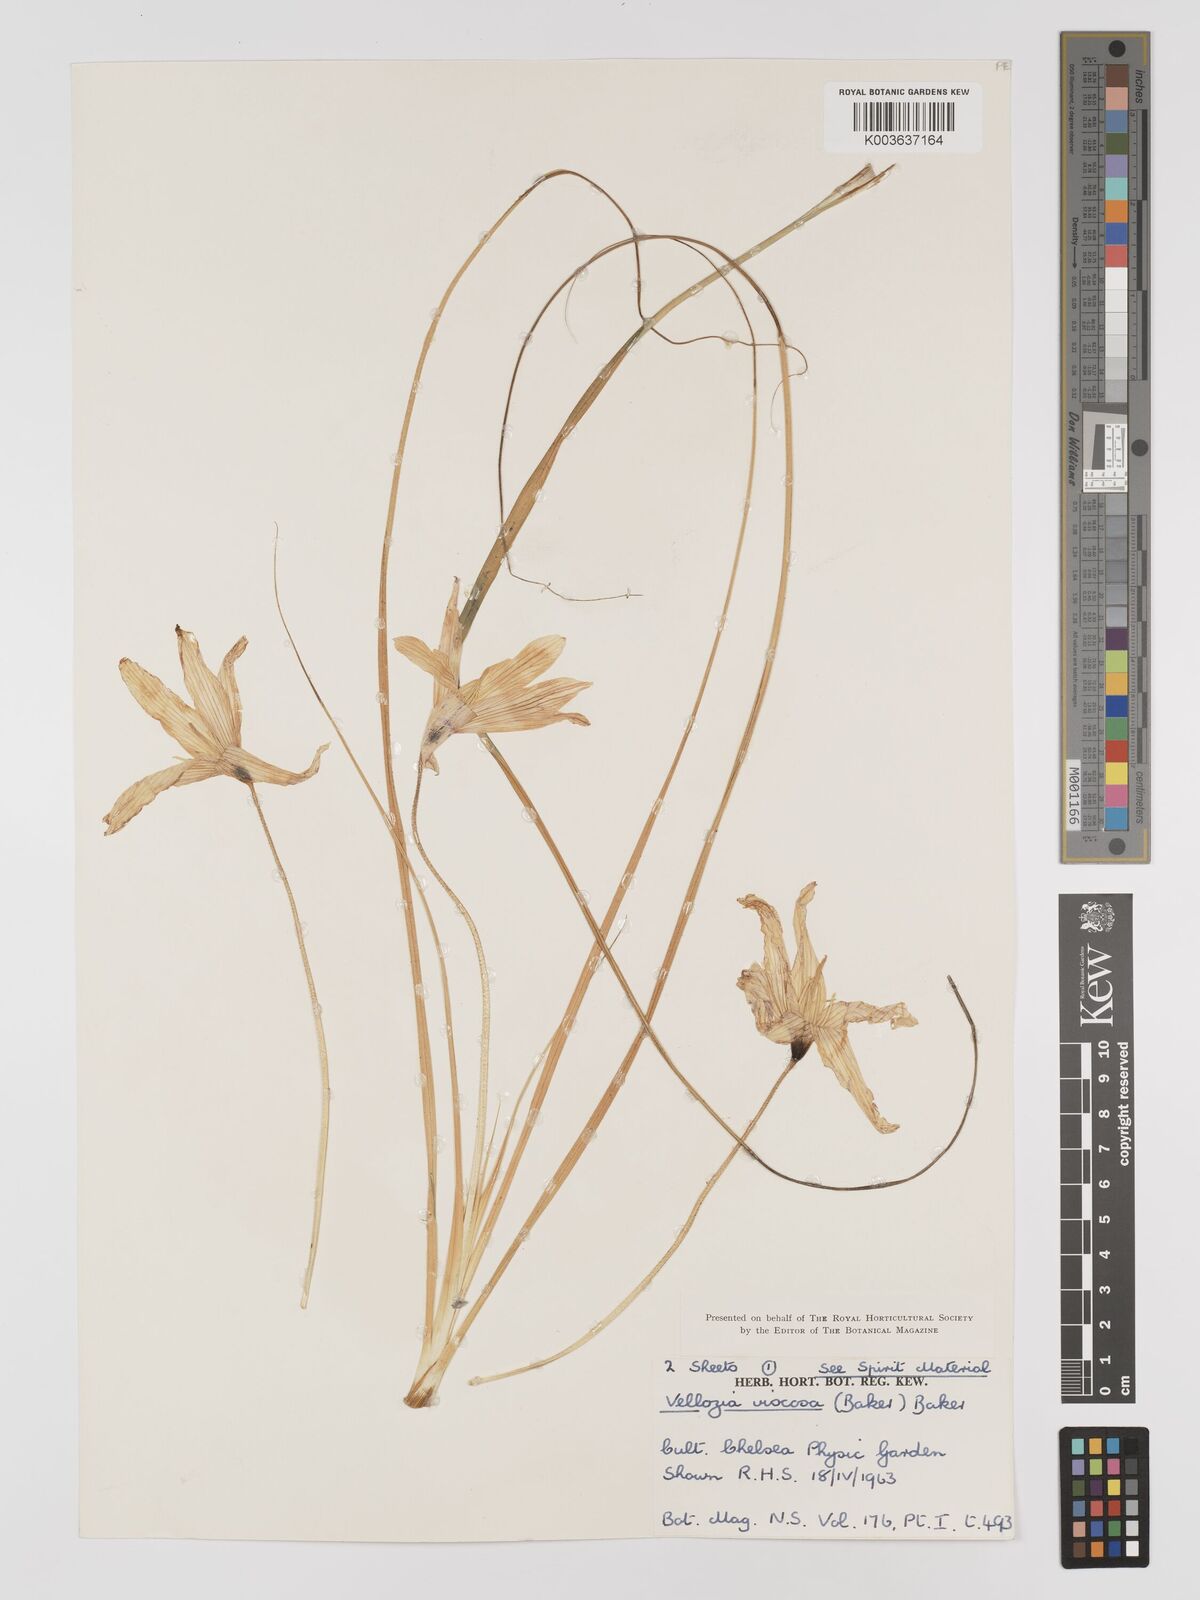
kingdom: Plantae
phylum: Tracheophyta
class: Liliopsida
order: Pandanales
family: Velloziaceae
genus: Xerophyta
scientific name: Xerophyta viscosa
